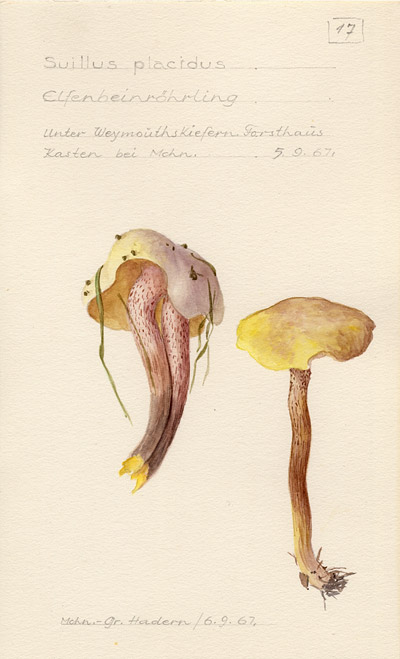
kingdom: Fungi
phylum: Basidiomycota
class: Agaricomycetes
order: Boletales
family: Suillaceae
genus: Suillus
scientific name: Suillus placidus
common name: Slippery white bolete
